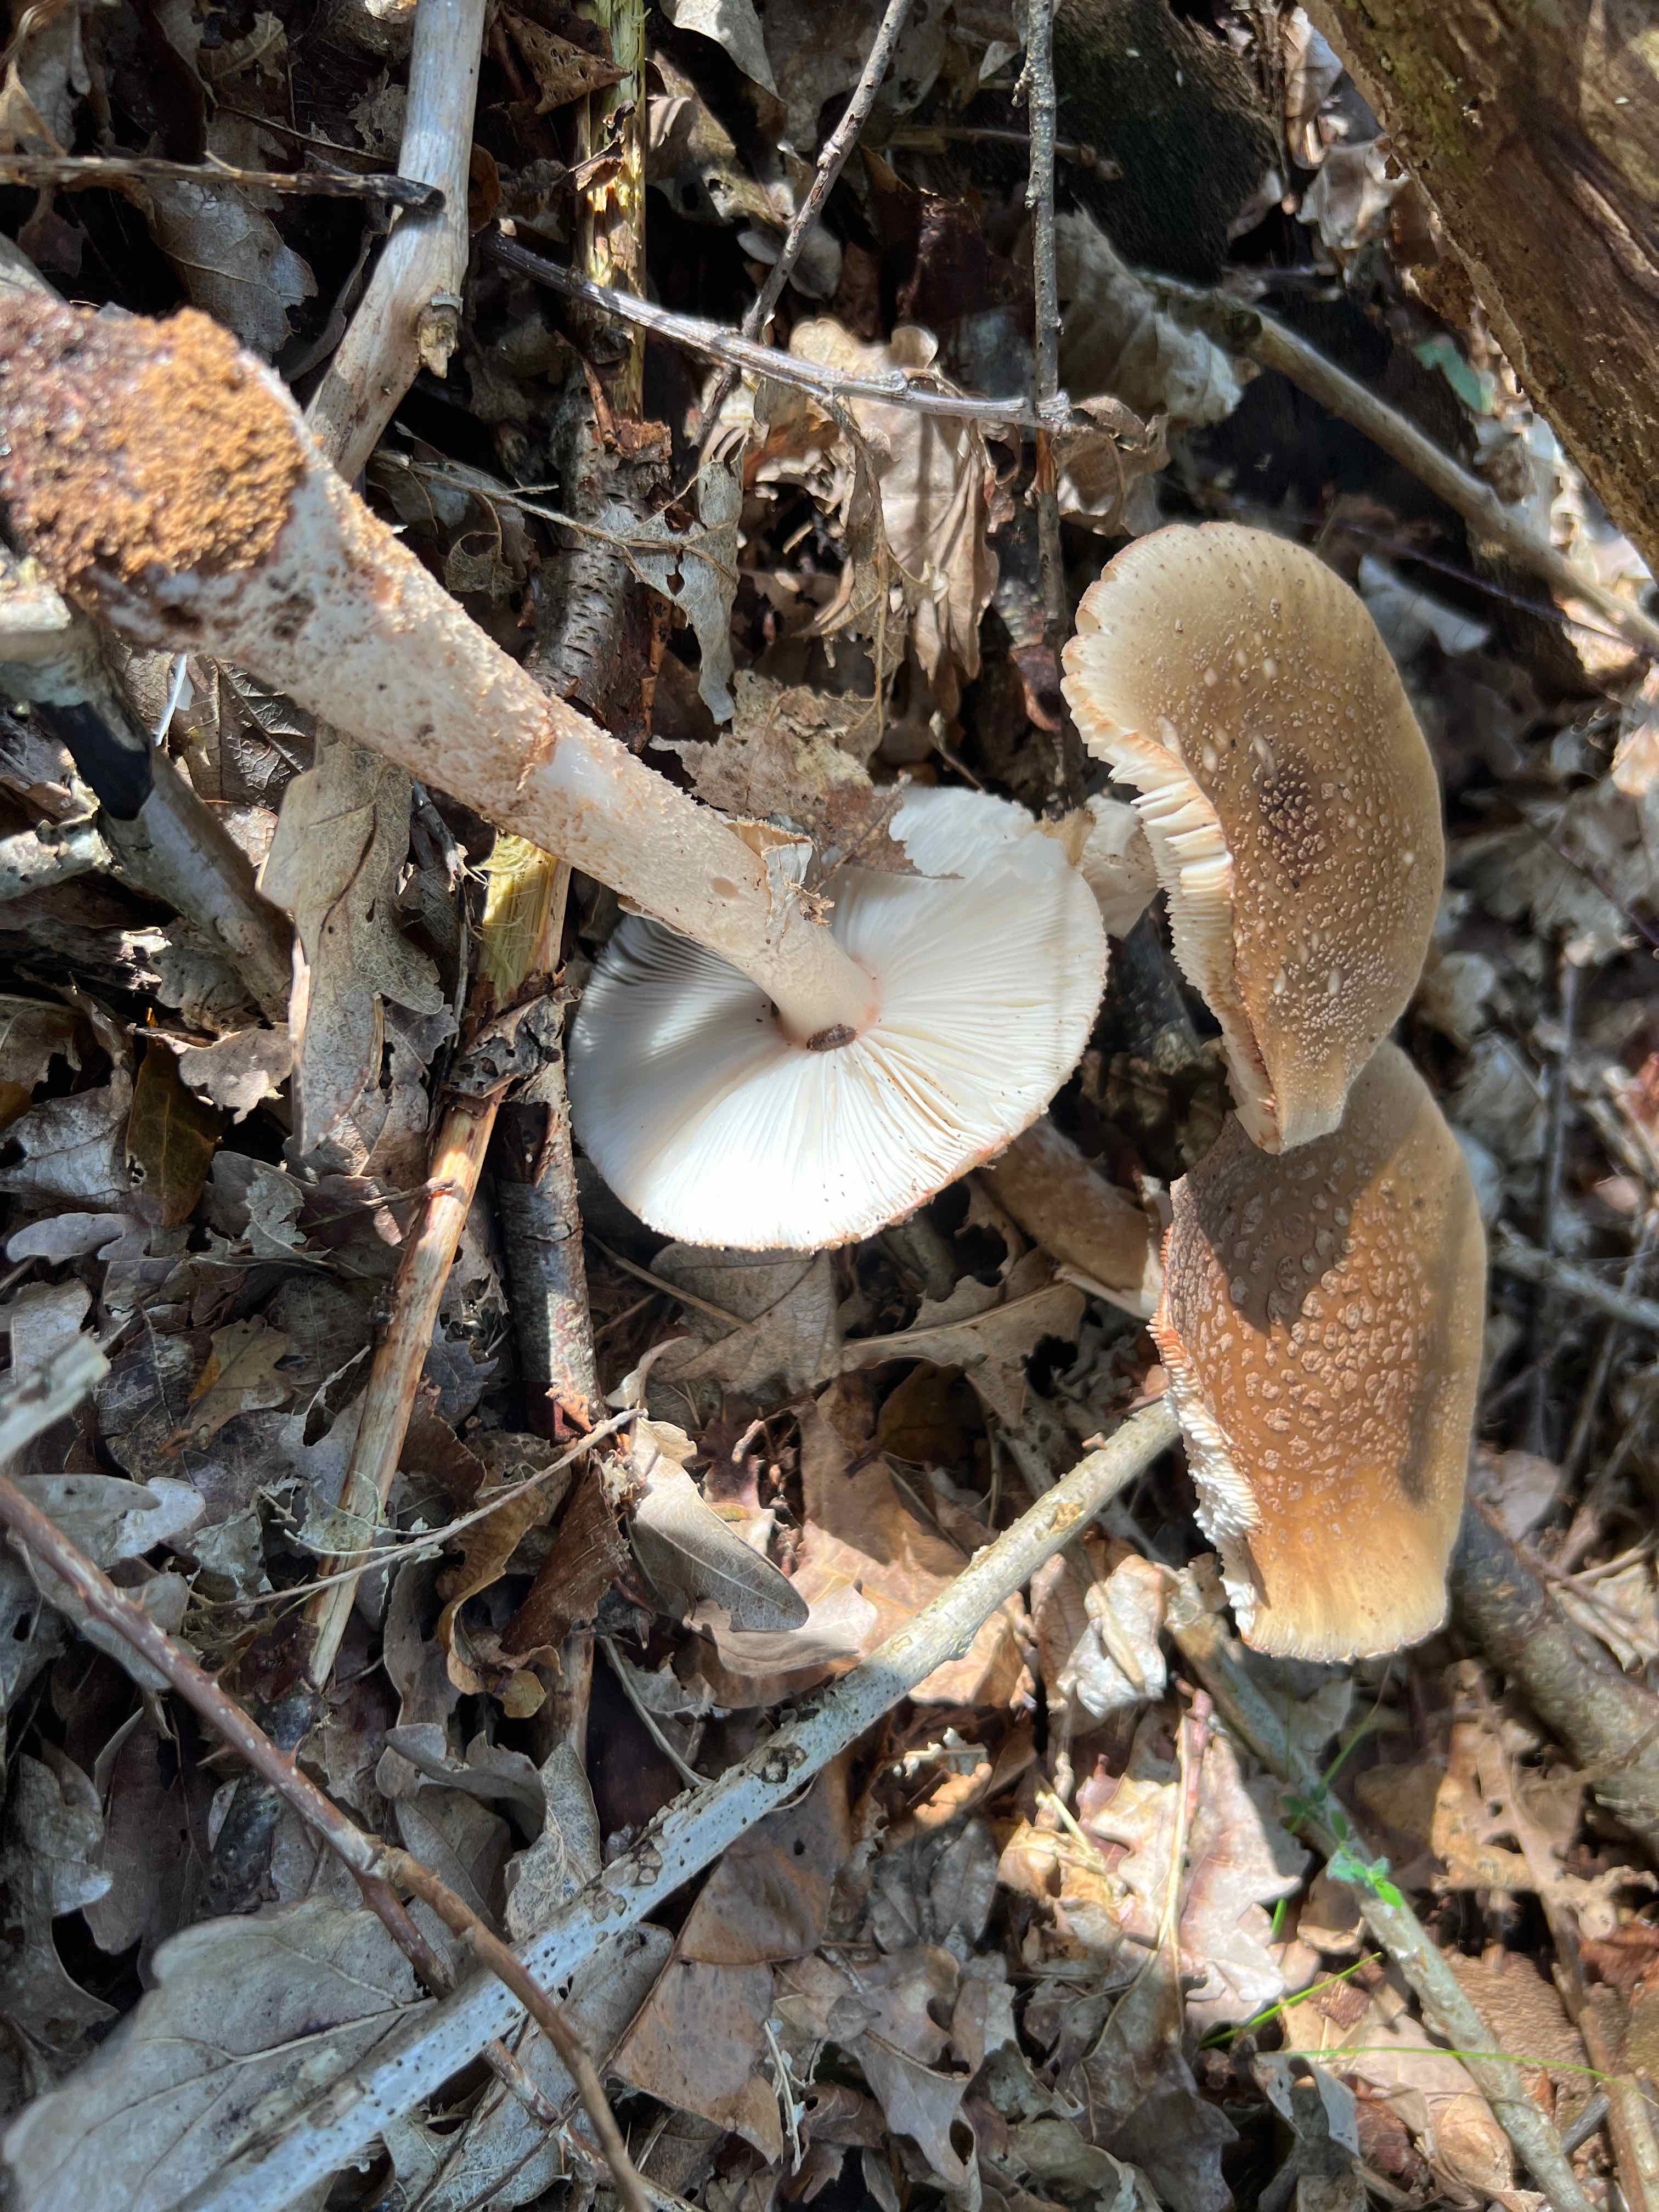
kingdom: Fungi
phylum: Basidiomycota
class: Agaricomycetes
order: Agaricales
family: Amanitaceae
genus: Amanita
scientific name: Amanita rubescens
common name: rødmende fluesvamp
